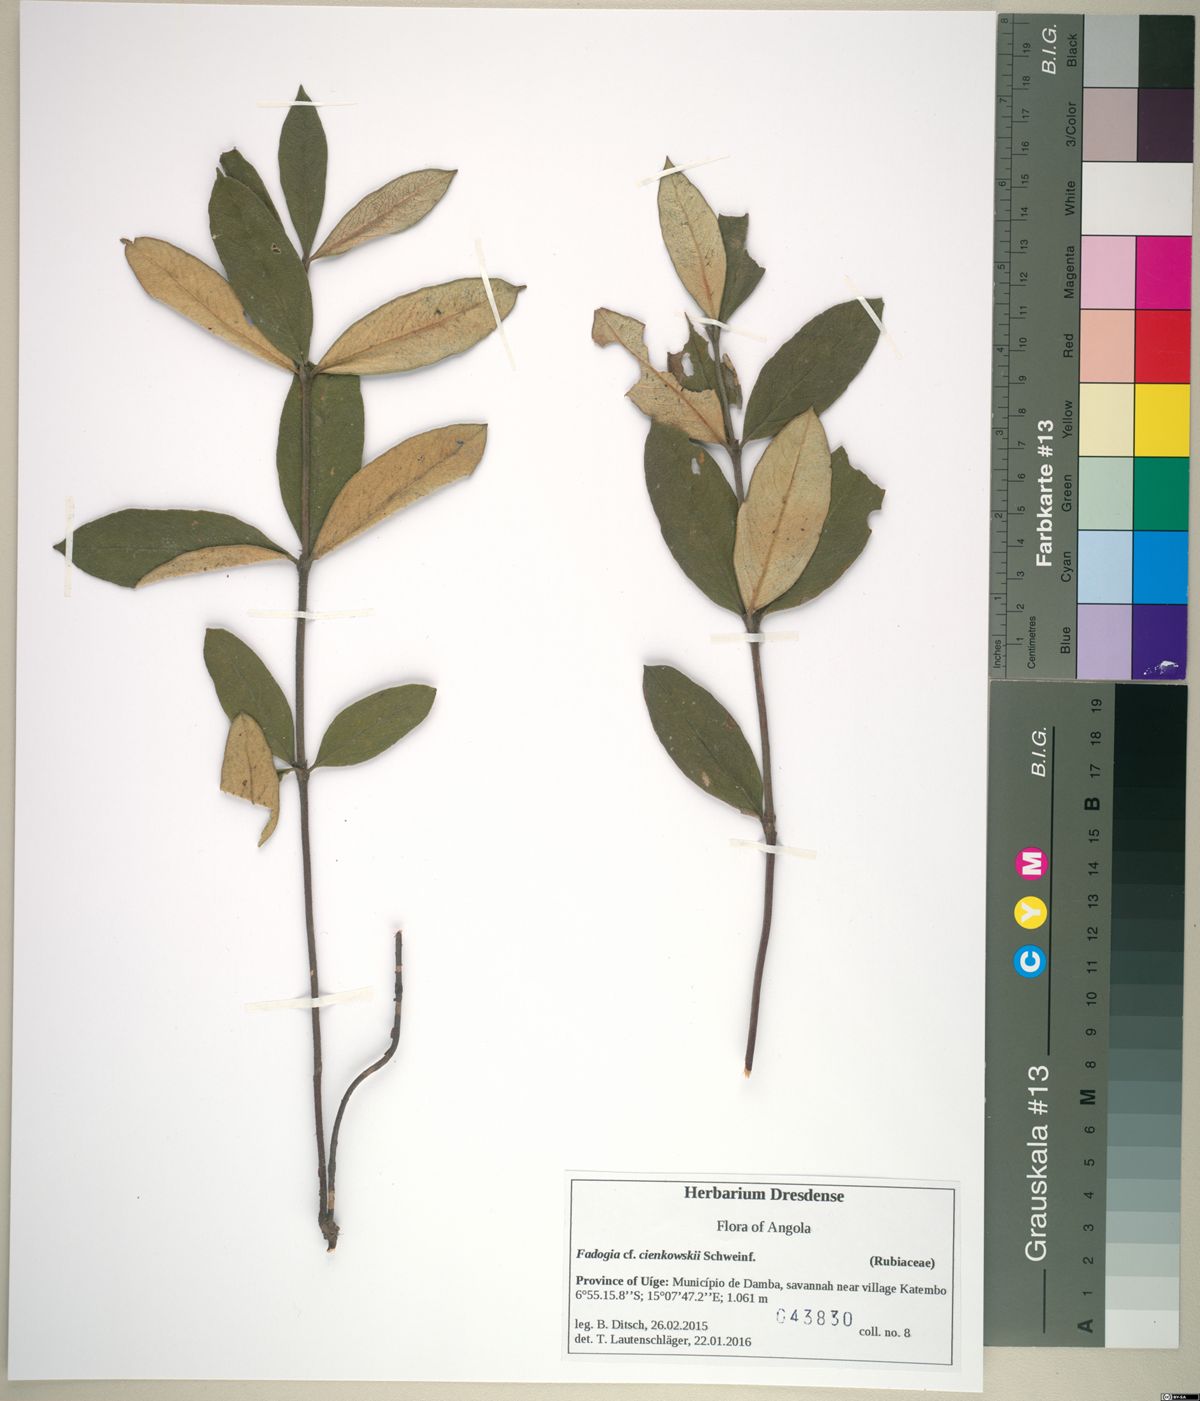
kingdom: Plantae
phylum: Tracheophyta
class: Magnoliopsida
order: Gentianales
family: Rubiaceae
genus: Fadogia
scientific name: Fadogia cienkowskii
